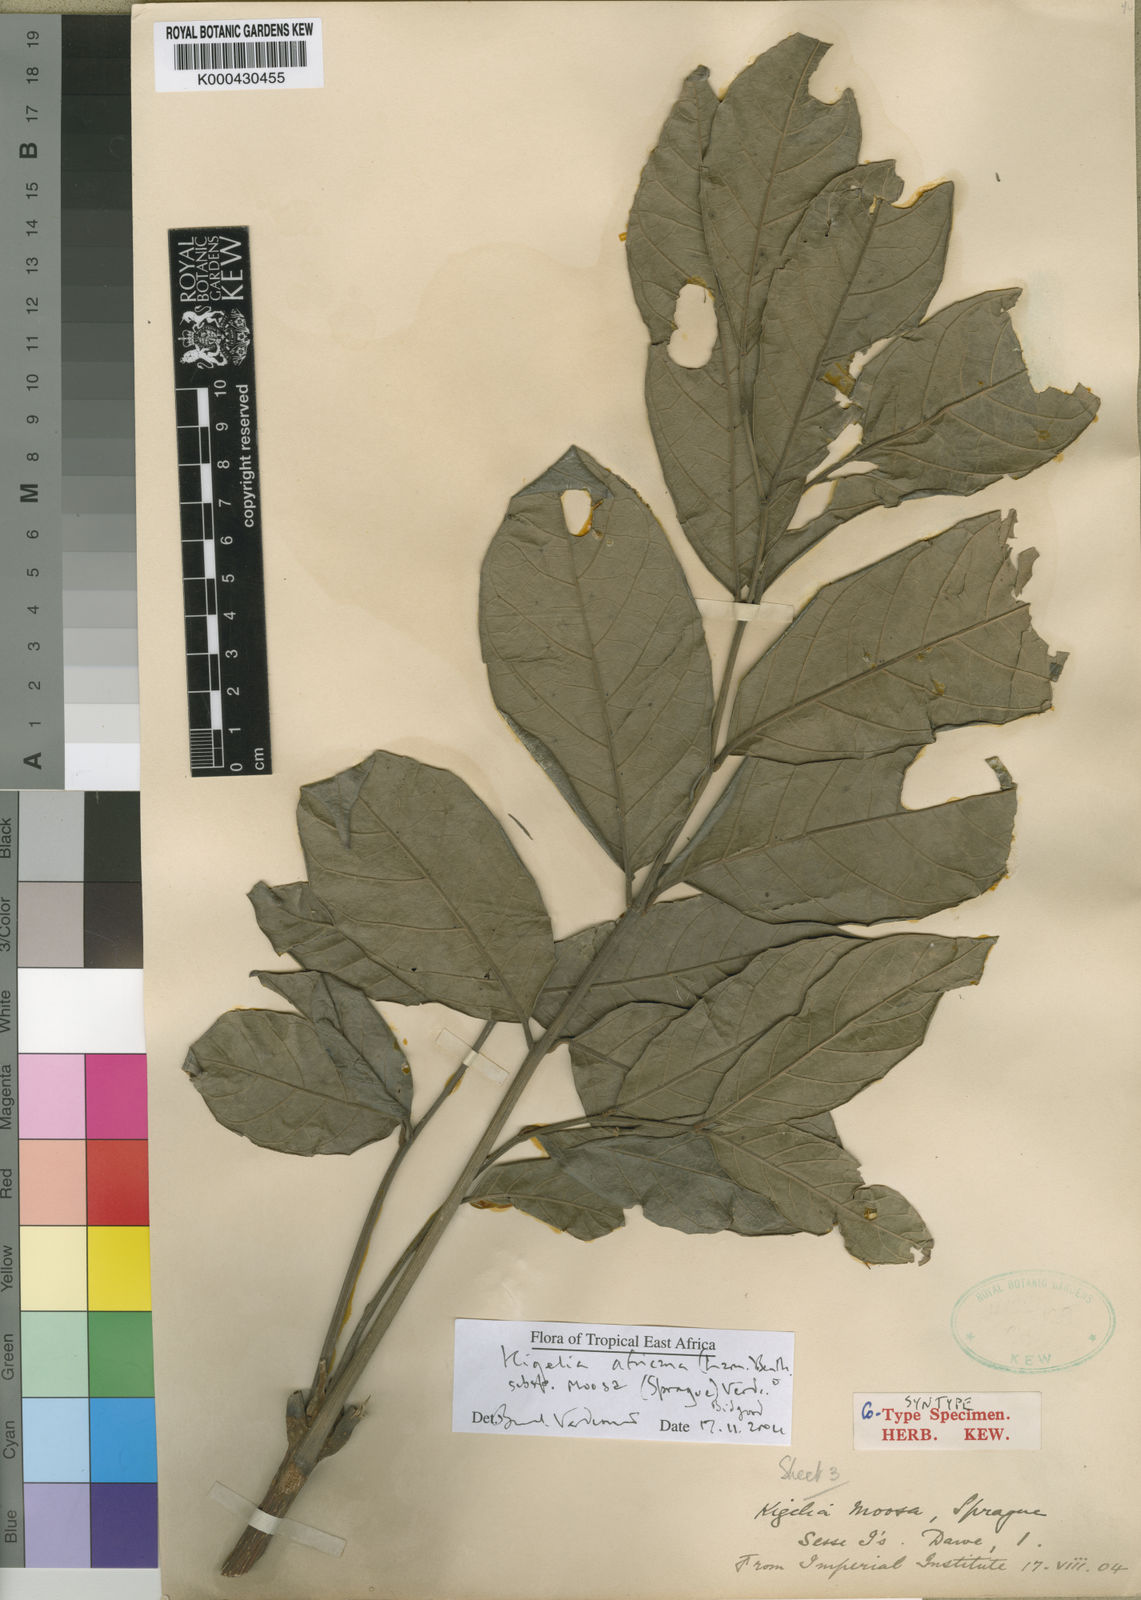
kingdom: Plantae
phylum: Tracheophyta
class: Magnoliopsida
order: Lamiales
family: Bignoniaceae
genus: Kigelia
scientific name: Kigelia africana
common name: Sausage tree
